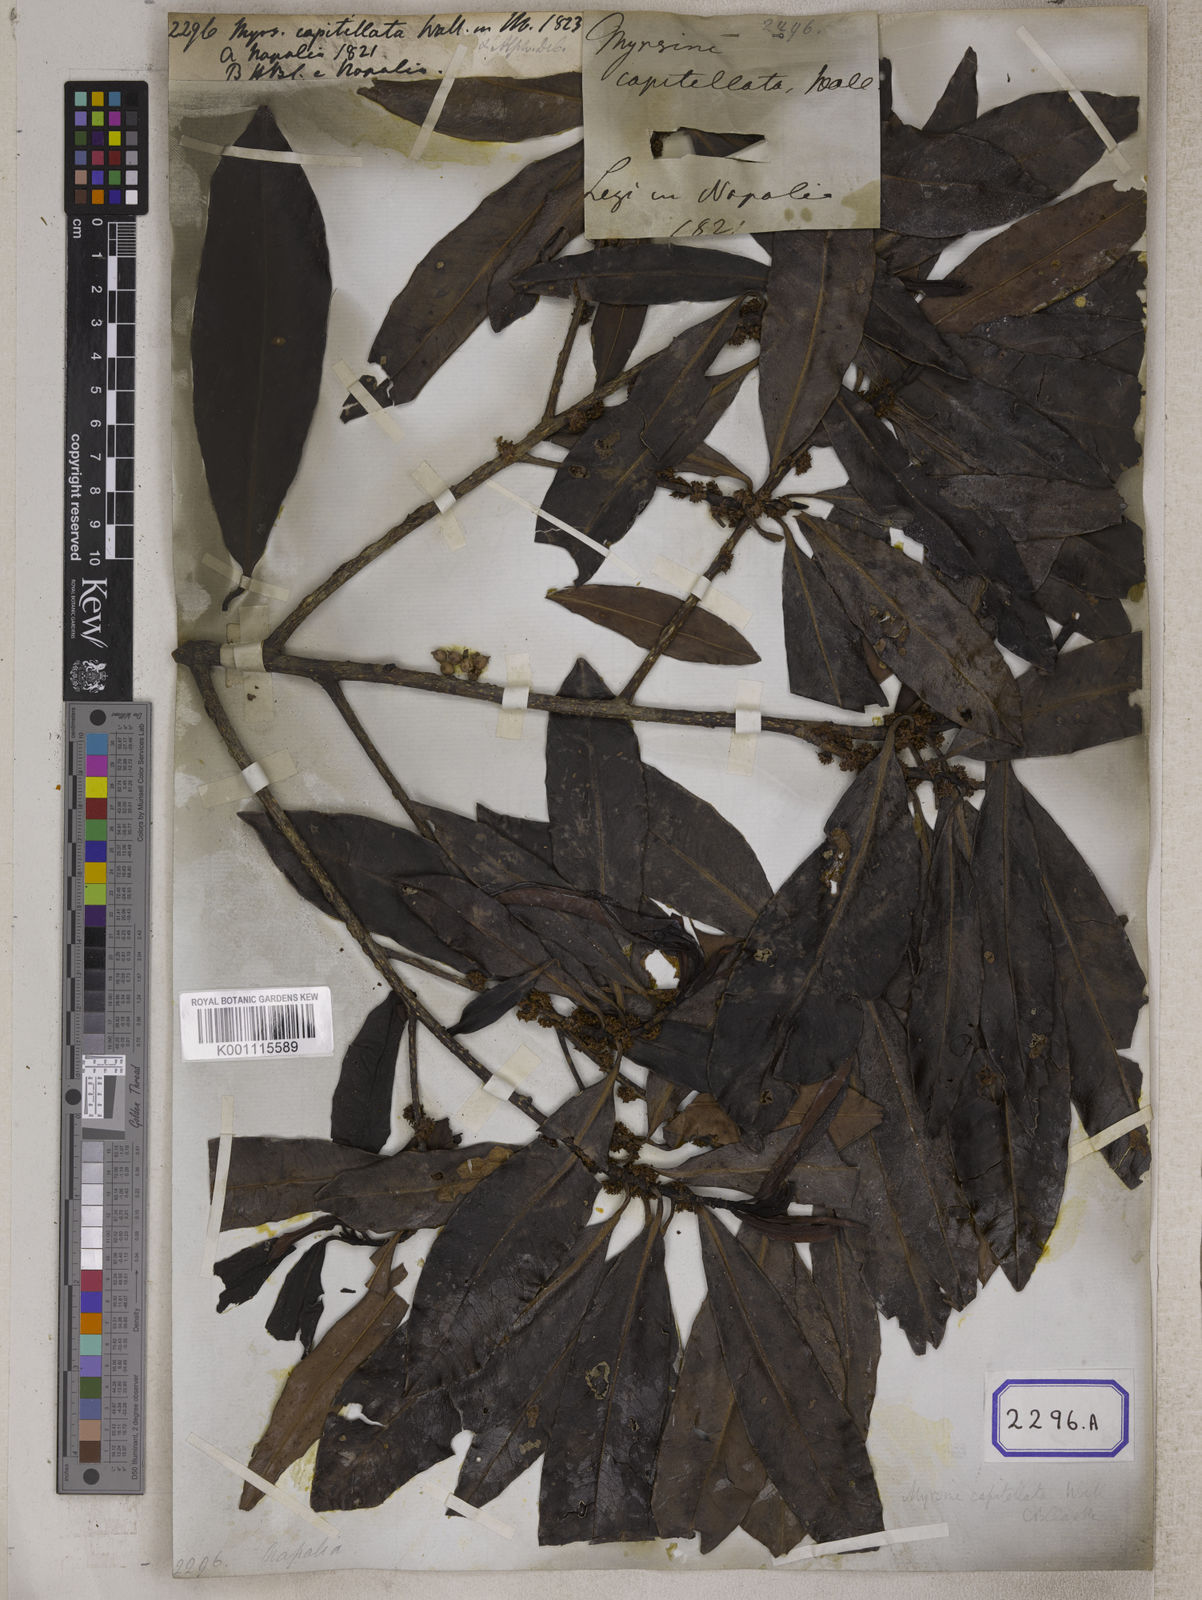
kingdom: Plantae
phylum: Tracheophyta
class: Magnoliopsida
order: Ericales
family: Primulaceae
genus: Myrsine
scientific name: Myrsine capitellata
